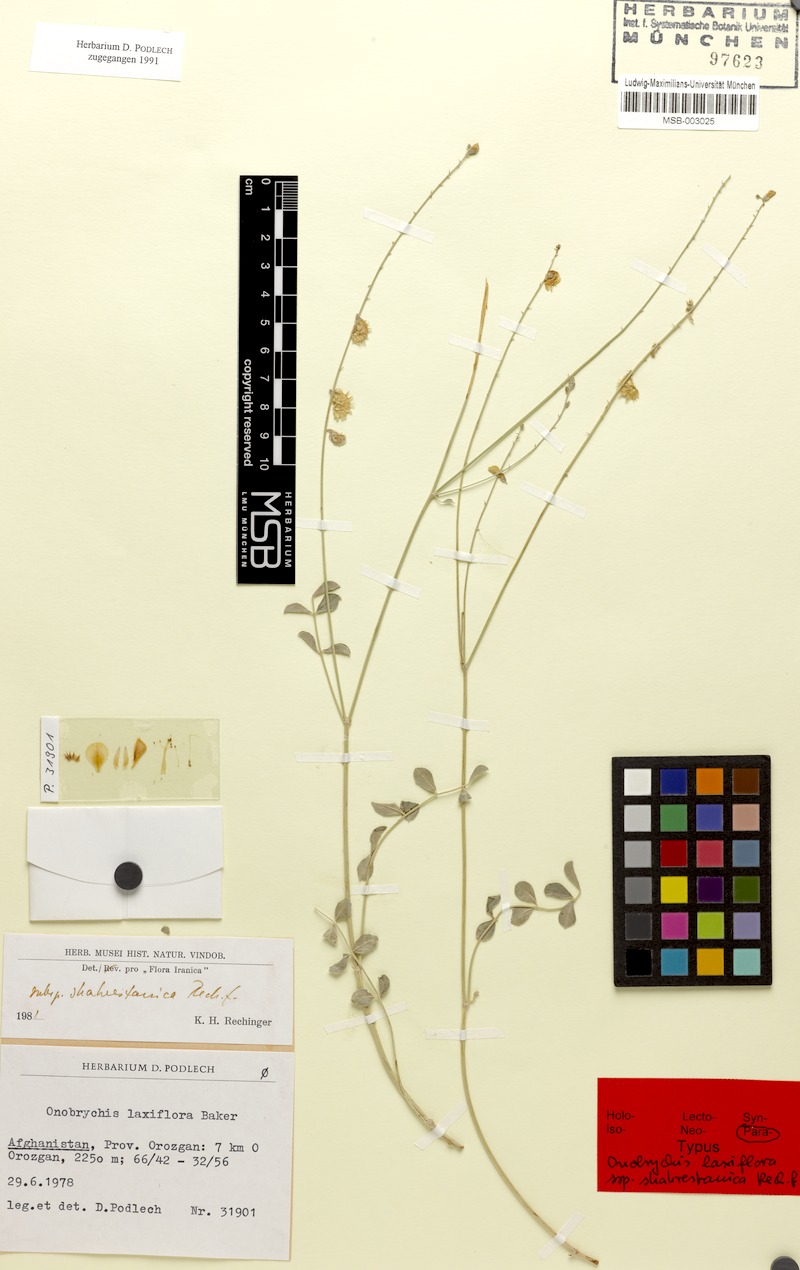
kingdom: Plantae
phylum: Tracheophyta
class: Magnoliopsida
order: Fabales
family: Fabaceae
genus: Onobrychis
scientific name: Onobrychis laxiflora
